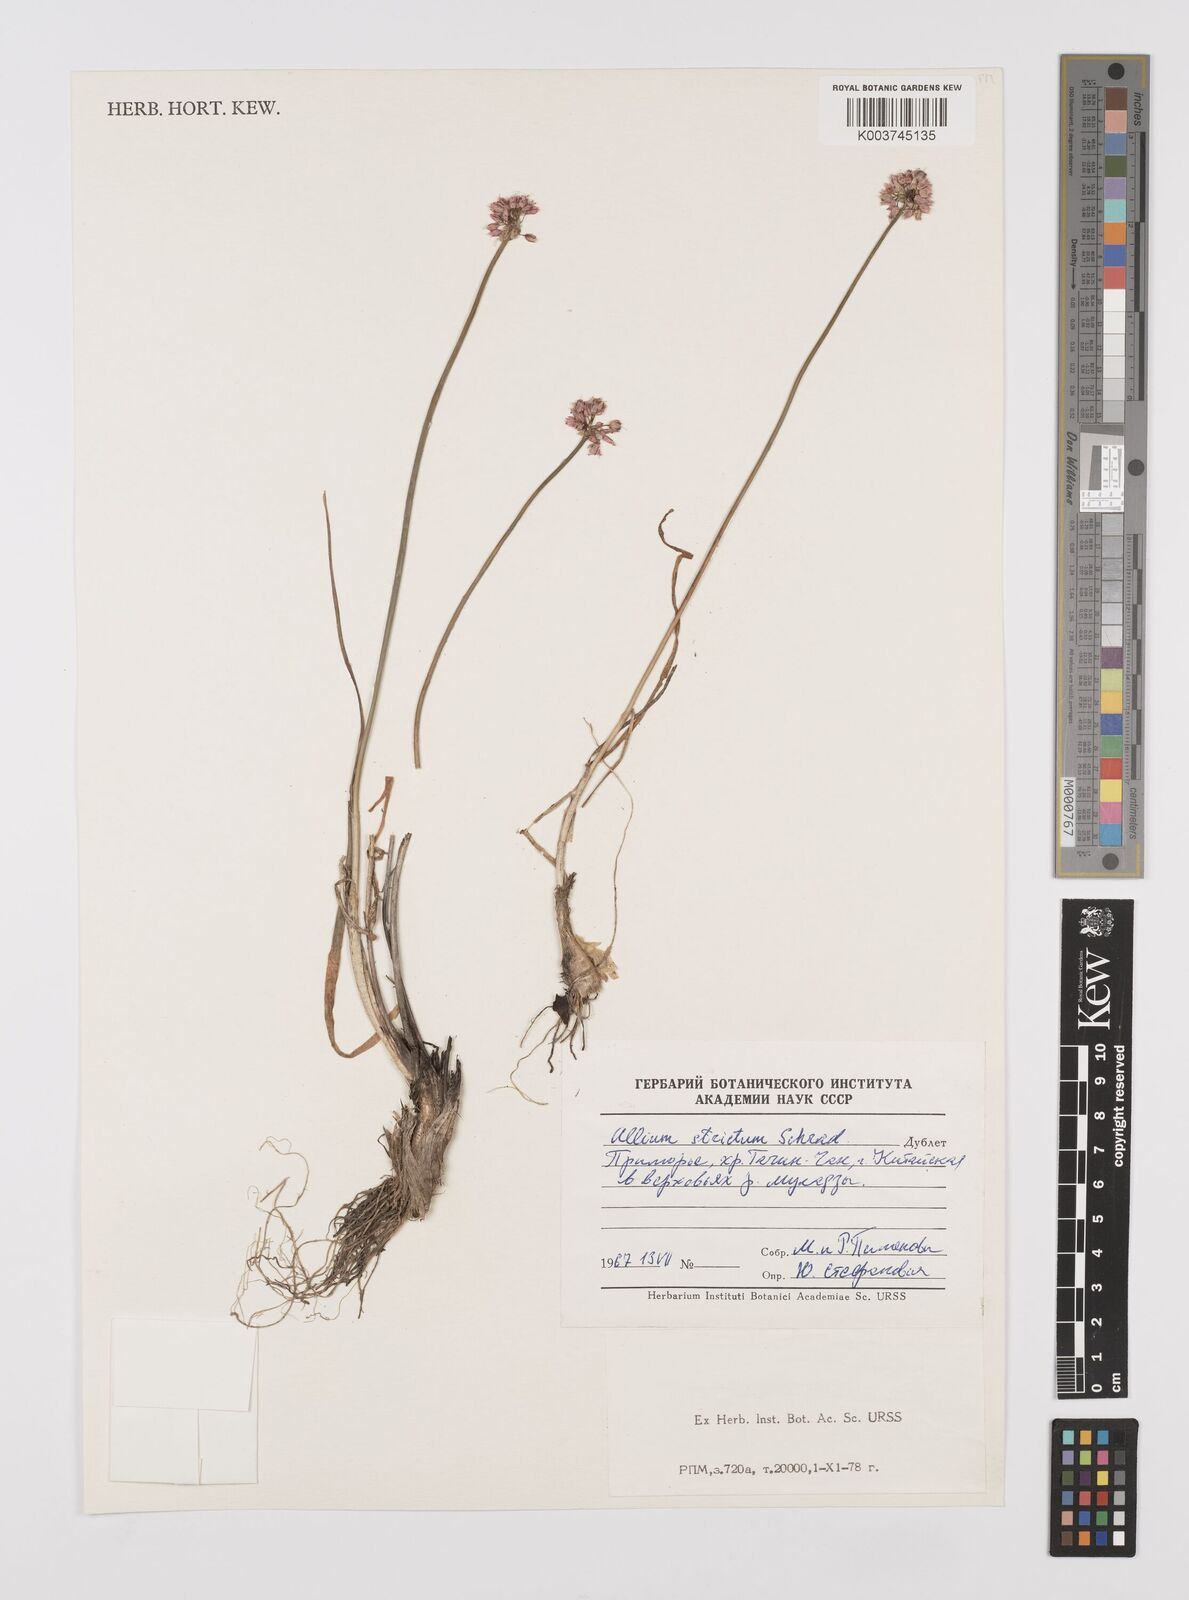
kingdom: Plantae
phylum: Tracheophyta
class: Liliopsida
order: Asparagales
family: Amaryllidaceae
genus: Allium
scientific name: Allium strictum
